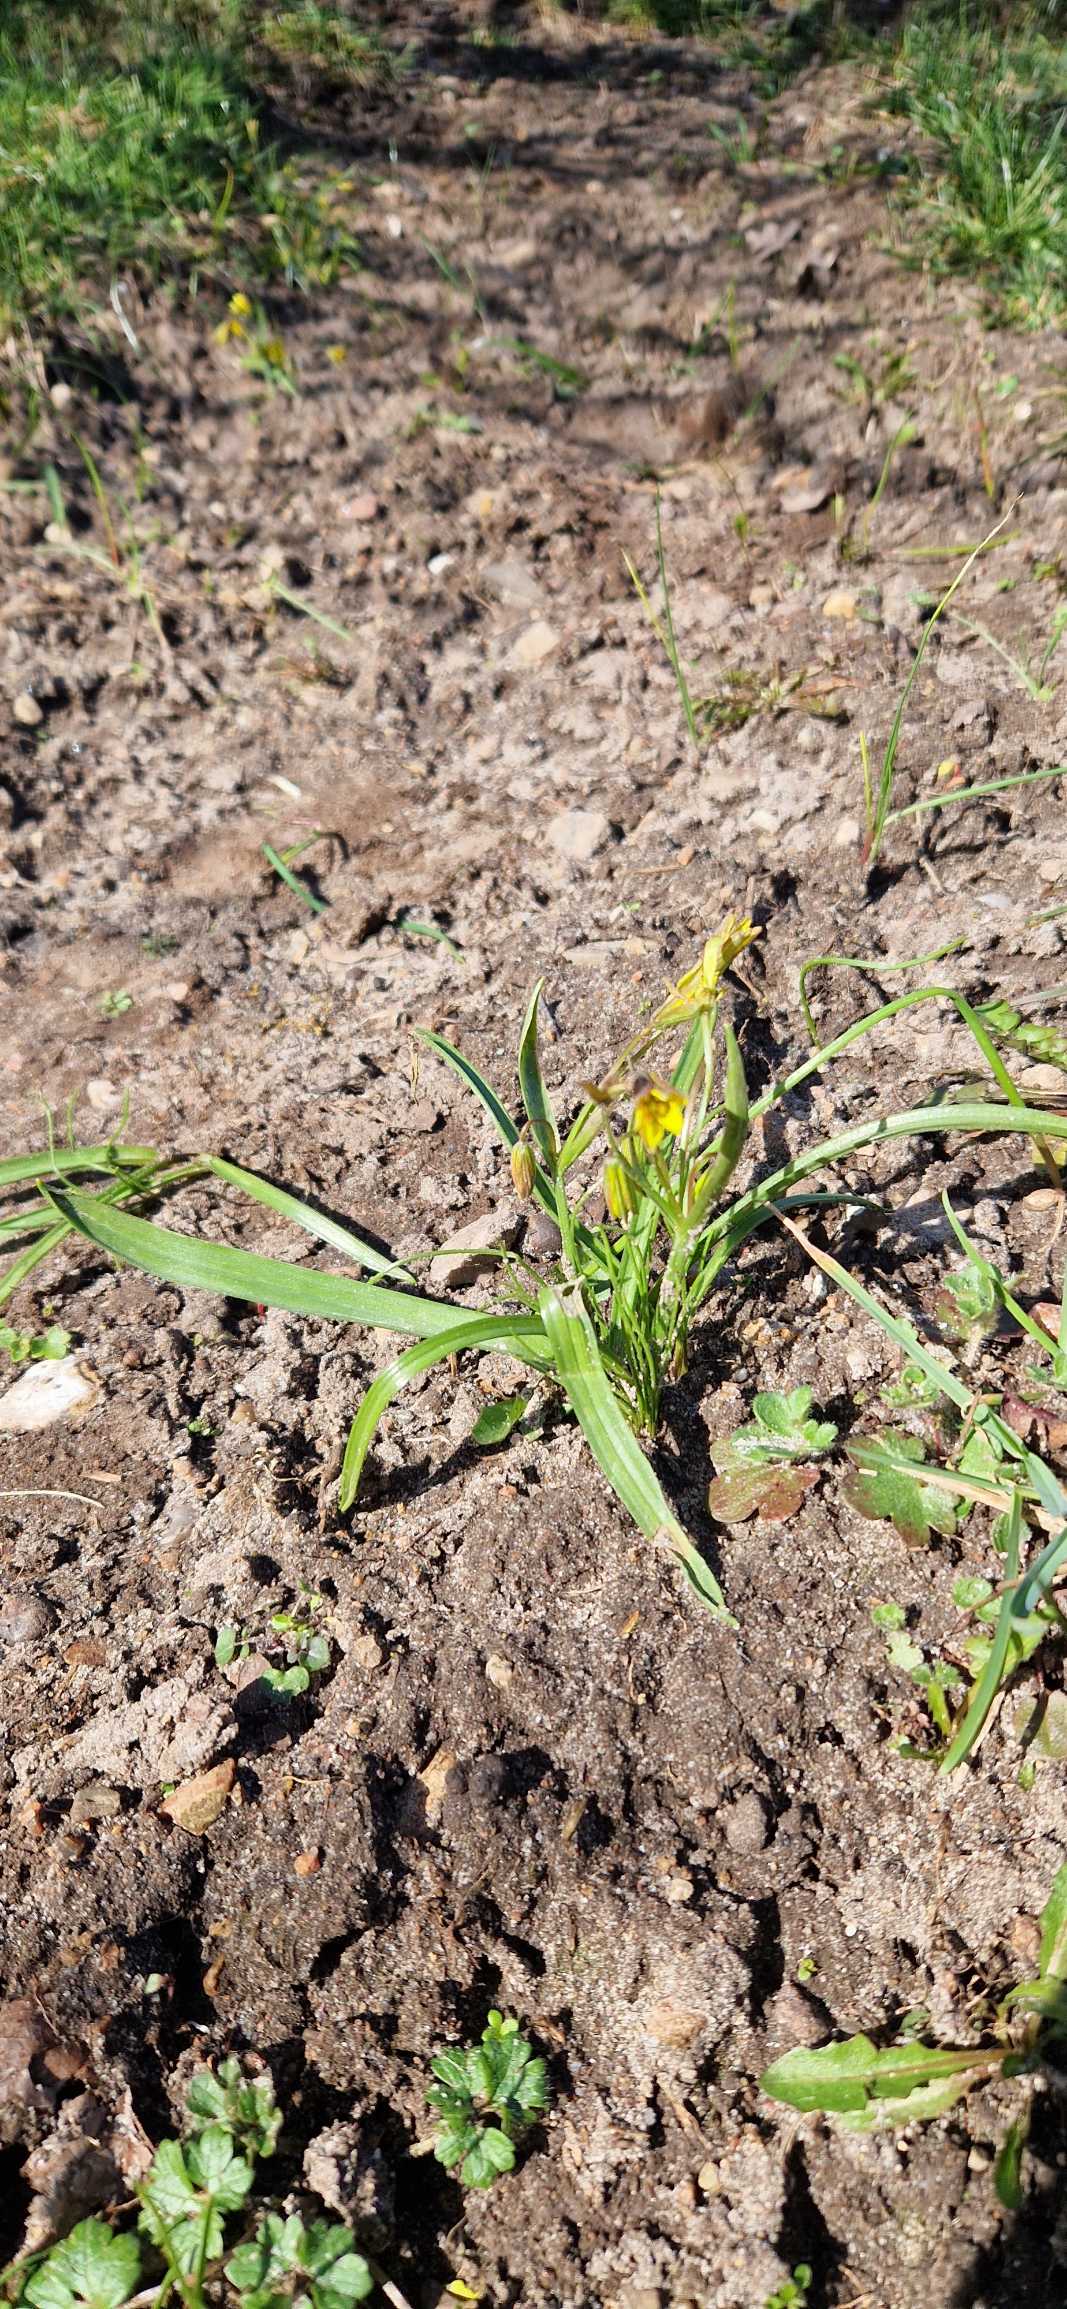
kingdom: Plantae
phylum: Tracheophyta
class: Liliopsida
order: Liliales
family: Liliaceae
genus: Gagea
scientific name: Gagea lutea
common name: Almindelig guldstjerne
